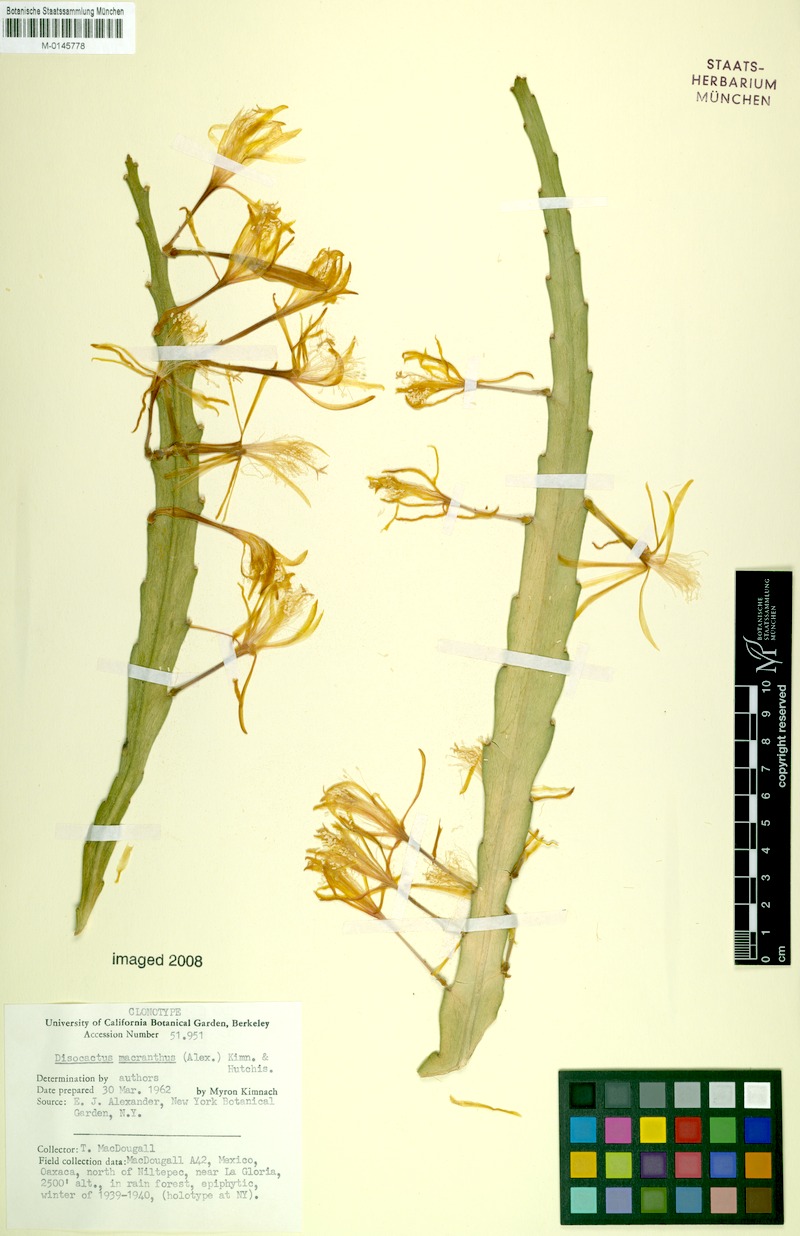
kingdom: Plantae
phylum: Tracheophyta
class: Magnoliopsida
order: Caryophyllales
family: Cactaceae
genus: Disocactus
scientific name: Disocactus macranthus
